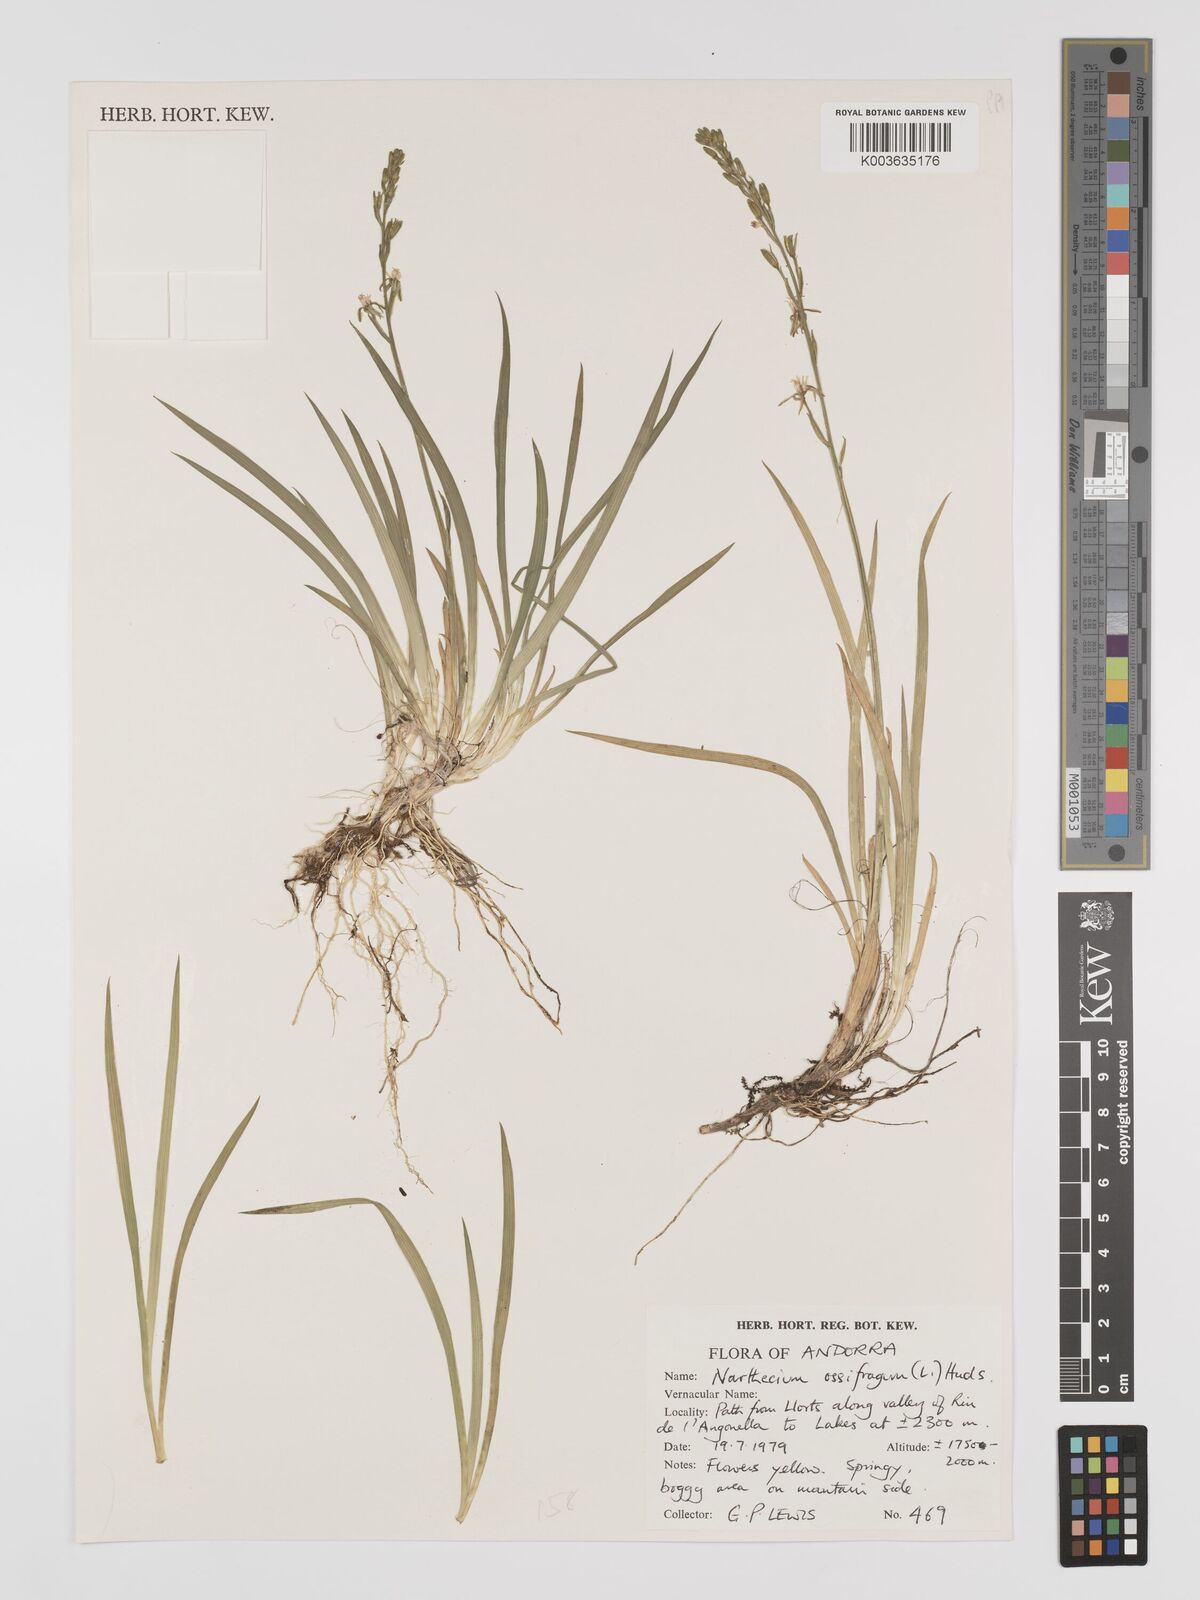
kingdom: Plantae
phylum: Tracheophyta
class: Liliopsida
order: Dioscoreales
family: Nartheciaceae
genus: Narthecium
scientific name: Narthecium ossifragum
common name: Bog asphodel
